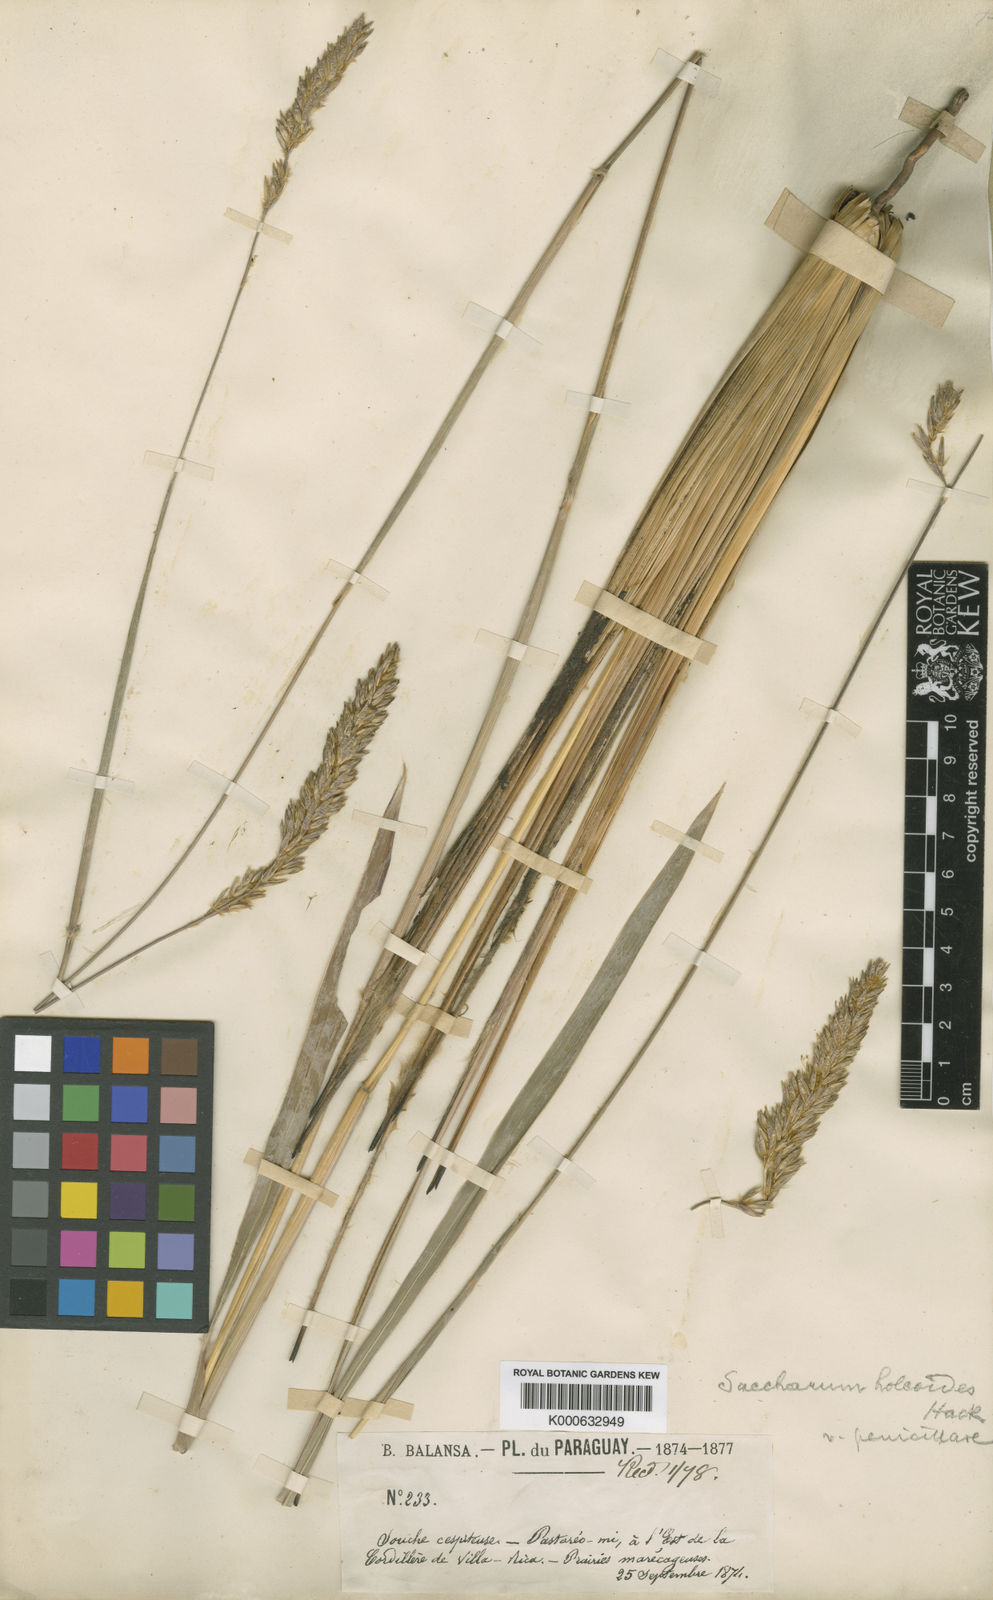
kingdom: Plantae
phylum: Tracheophyta
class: Liliopsida
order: Poales
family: Poaceae
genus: Eriochrysis
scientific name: Eriochrysis holcoides
